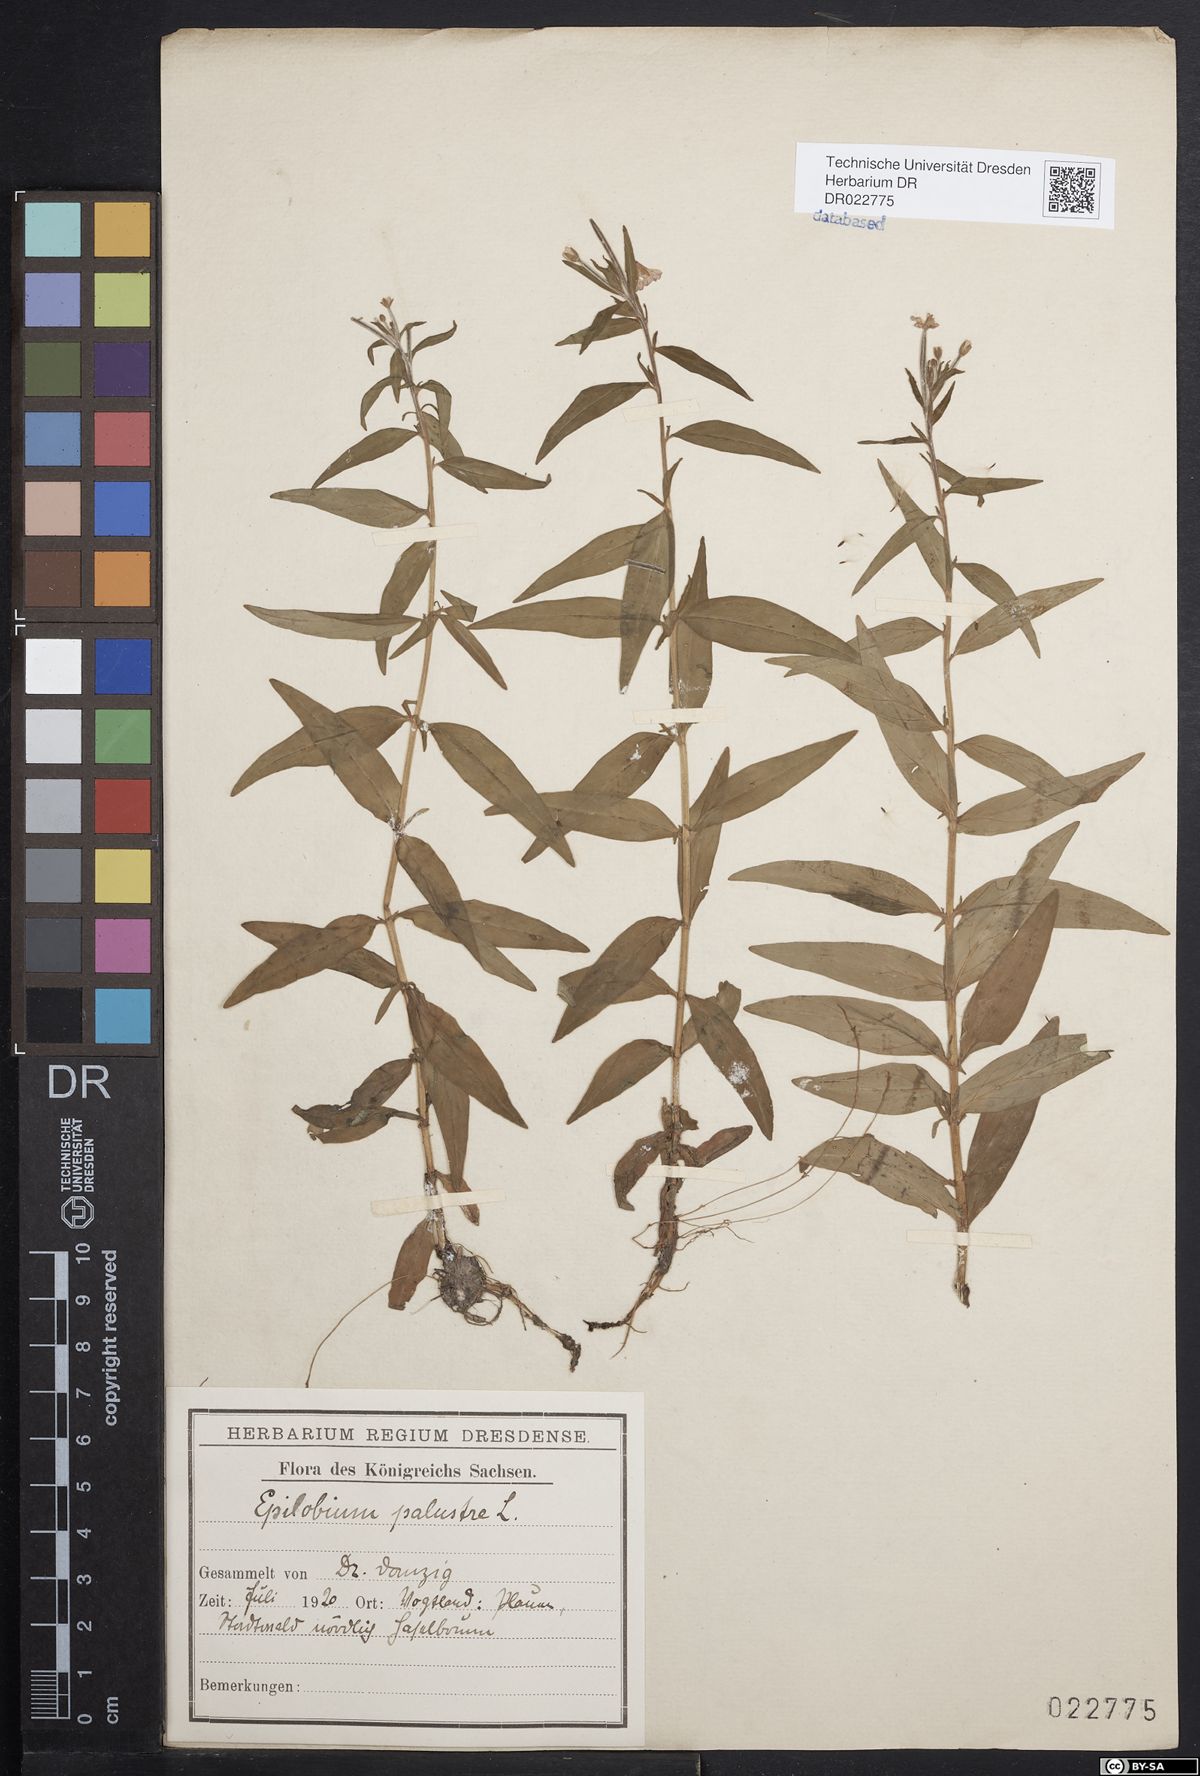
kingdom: Plantae
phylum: Tracheophyta
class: Magnoliopsida
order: Myrtales
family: Onagraceae
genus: Epilobium
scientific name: Epilobium palustre
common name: Marsh willowherb
